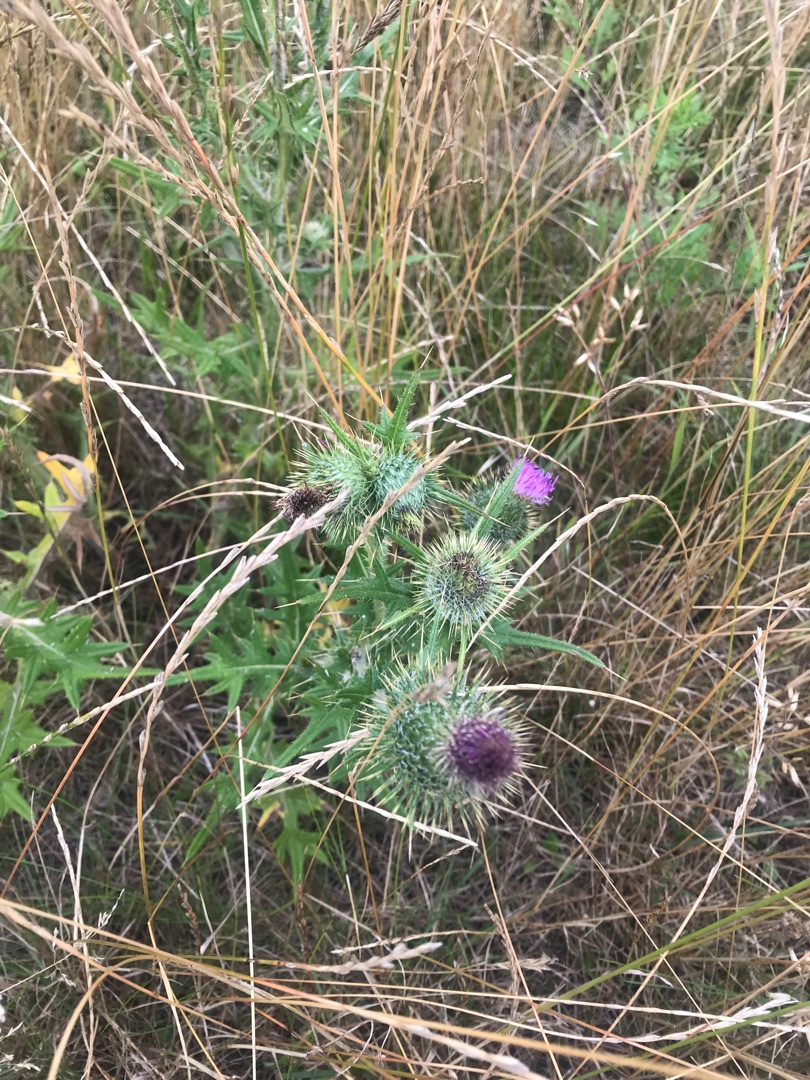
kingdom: Plantae
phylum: Tracheophyta
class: Magnoliopsida
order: Asterales
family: Asteraceae
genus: Cirsium
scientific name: Cirsium vulgare
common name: Horse-tidsel
